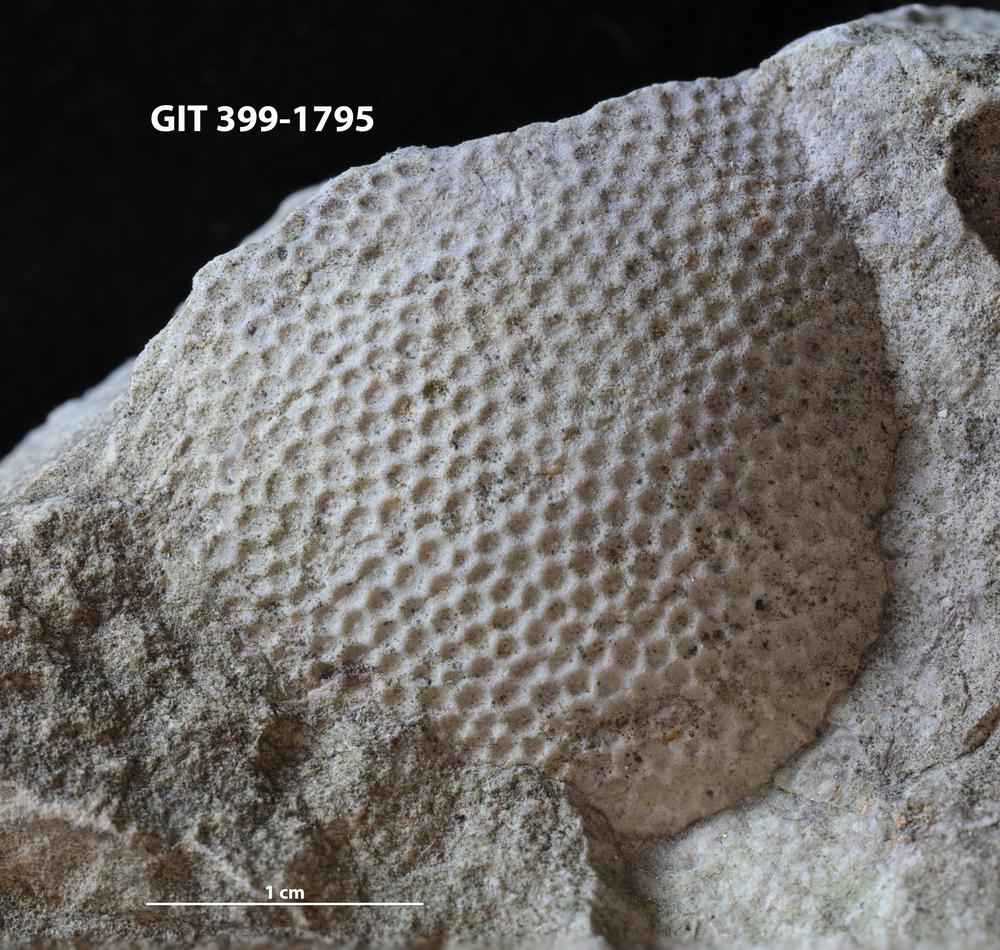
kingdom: Plantae
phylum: Chlorophyta
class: Ulvophyceae
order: Cyclocrinales
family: Cyclocrinaceae
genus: Mastopora
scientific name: Mastopora concava
